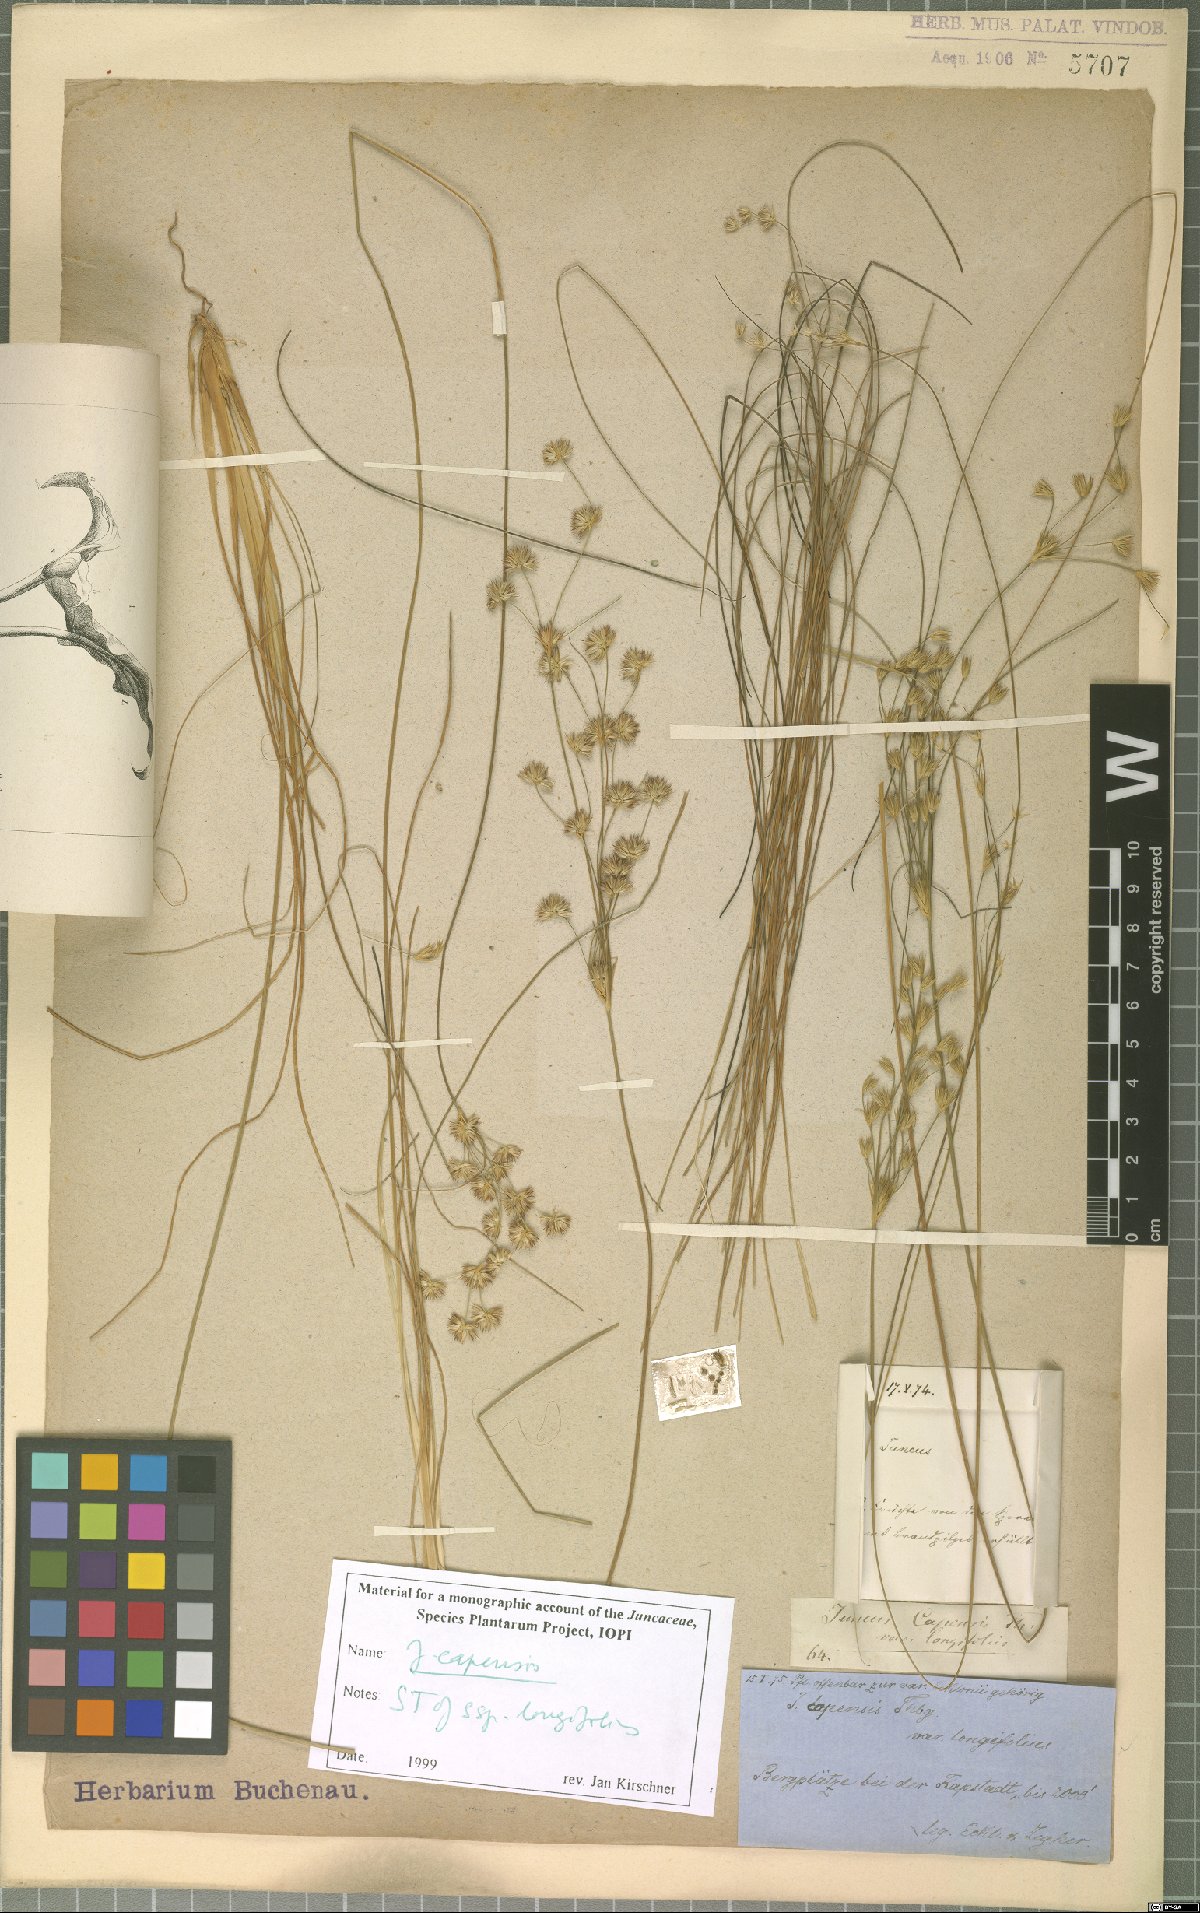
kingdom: Plantae
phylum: Tracheophyta
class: Liliopsida
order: Poales
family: Juncaceae
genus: Juncus
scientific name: Juncus capensis
